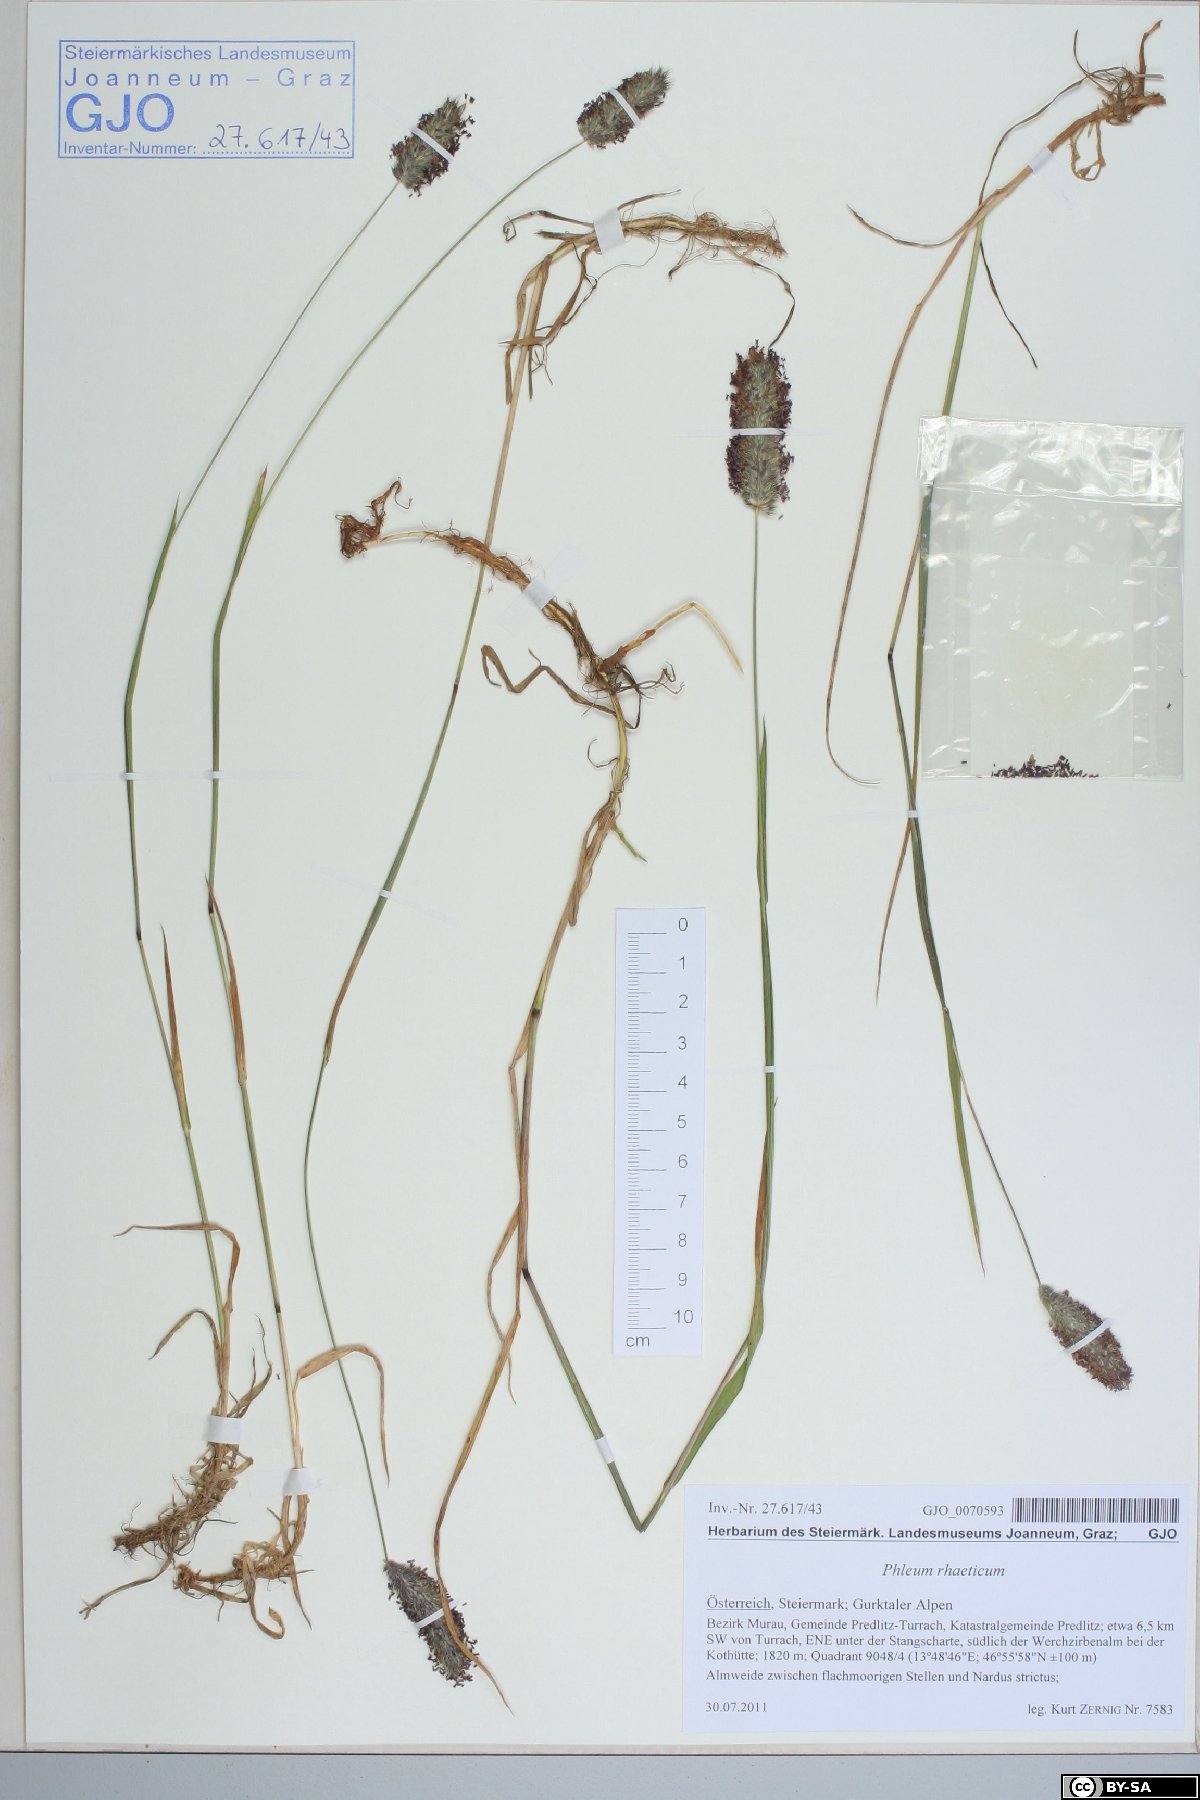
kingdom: Plantae
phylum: Tracheophyta
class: Liliopsida
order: Poales
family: Poaceae
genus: Phleum
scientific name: Phleum alpinum
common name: Alpine cat's-tail
